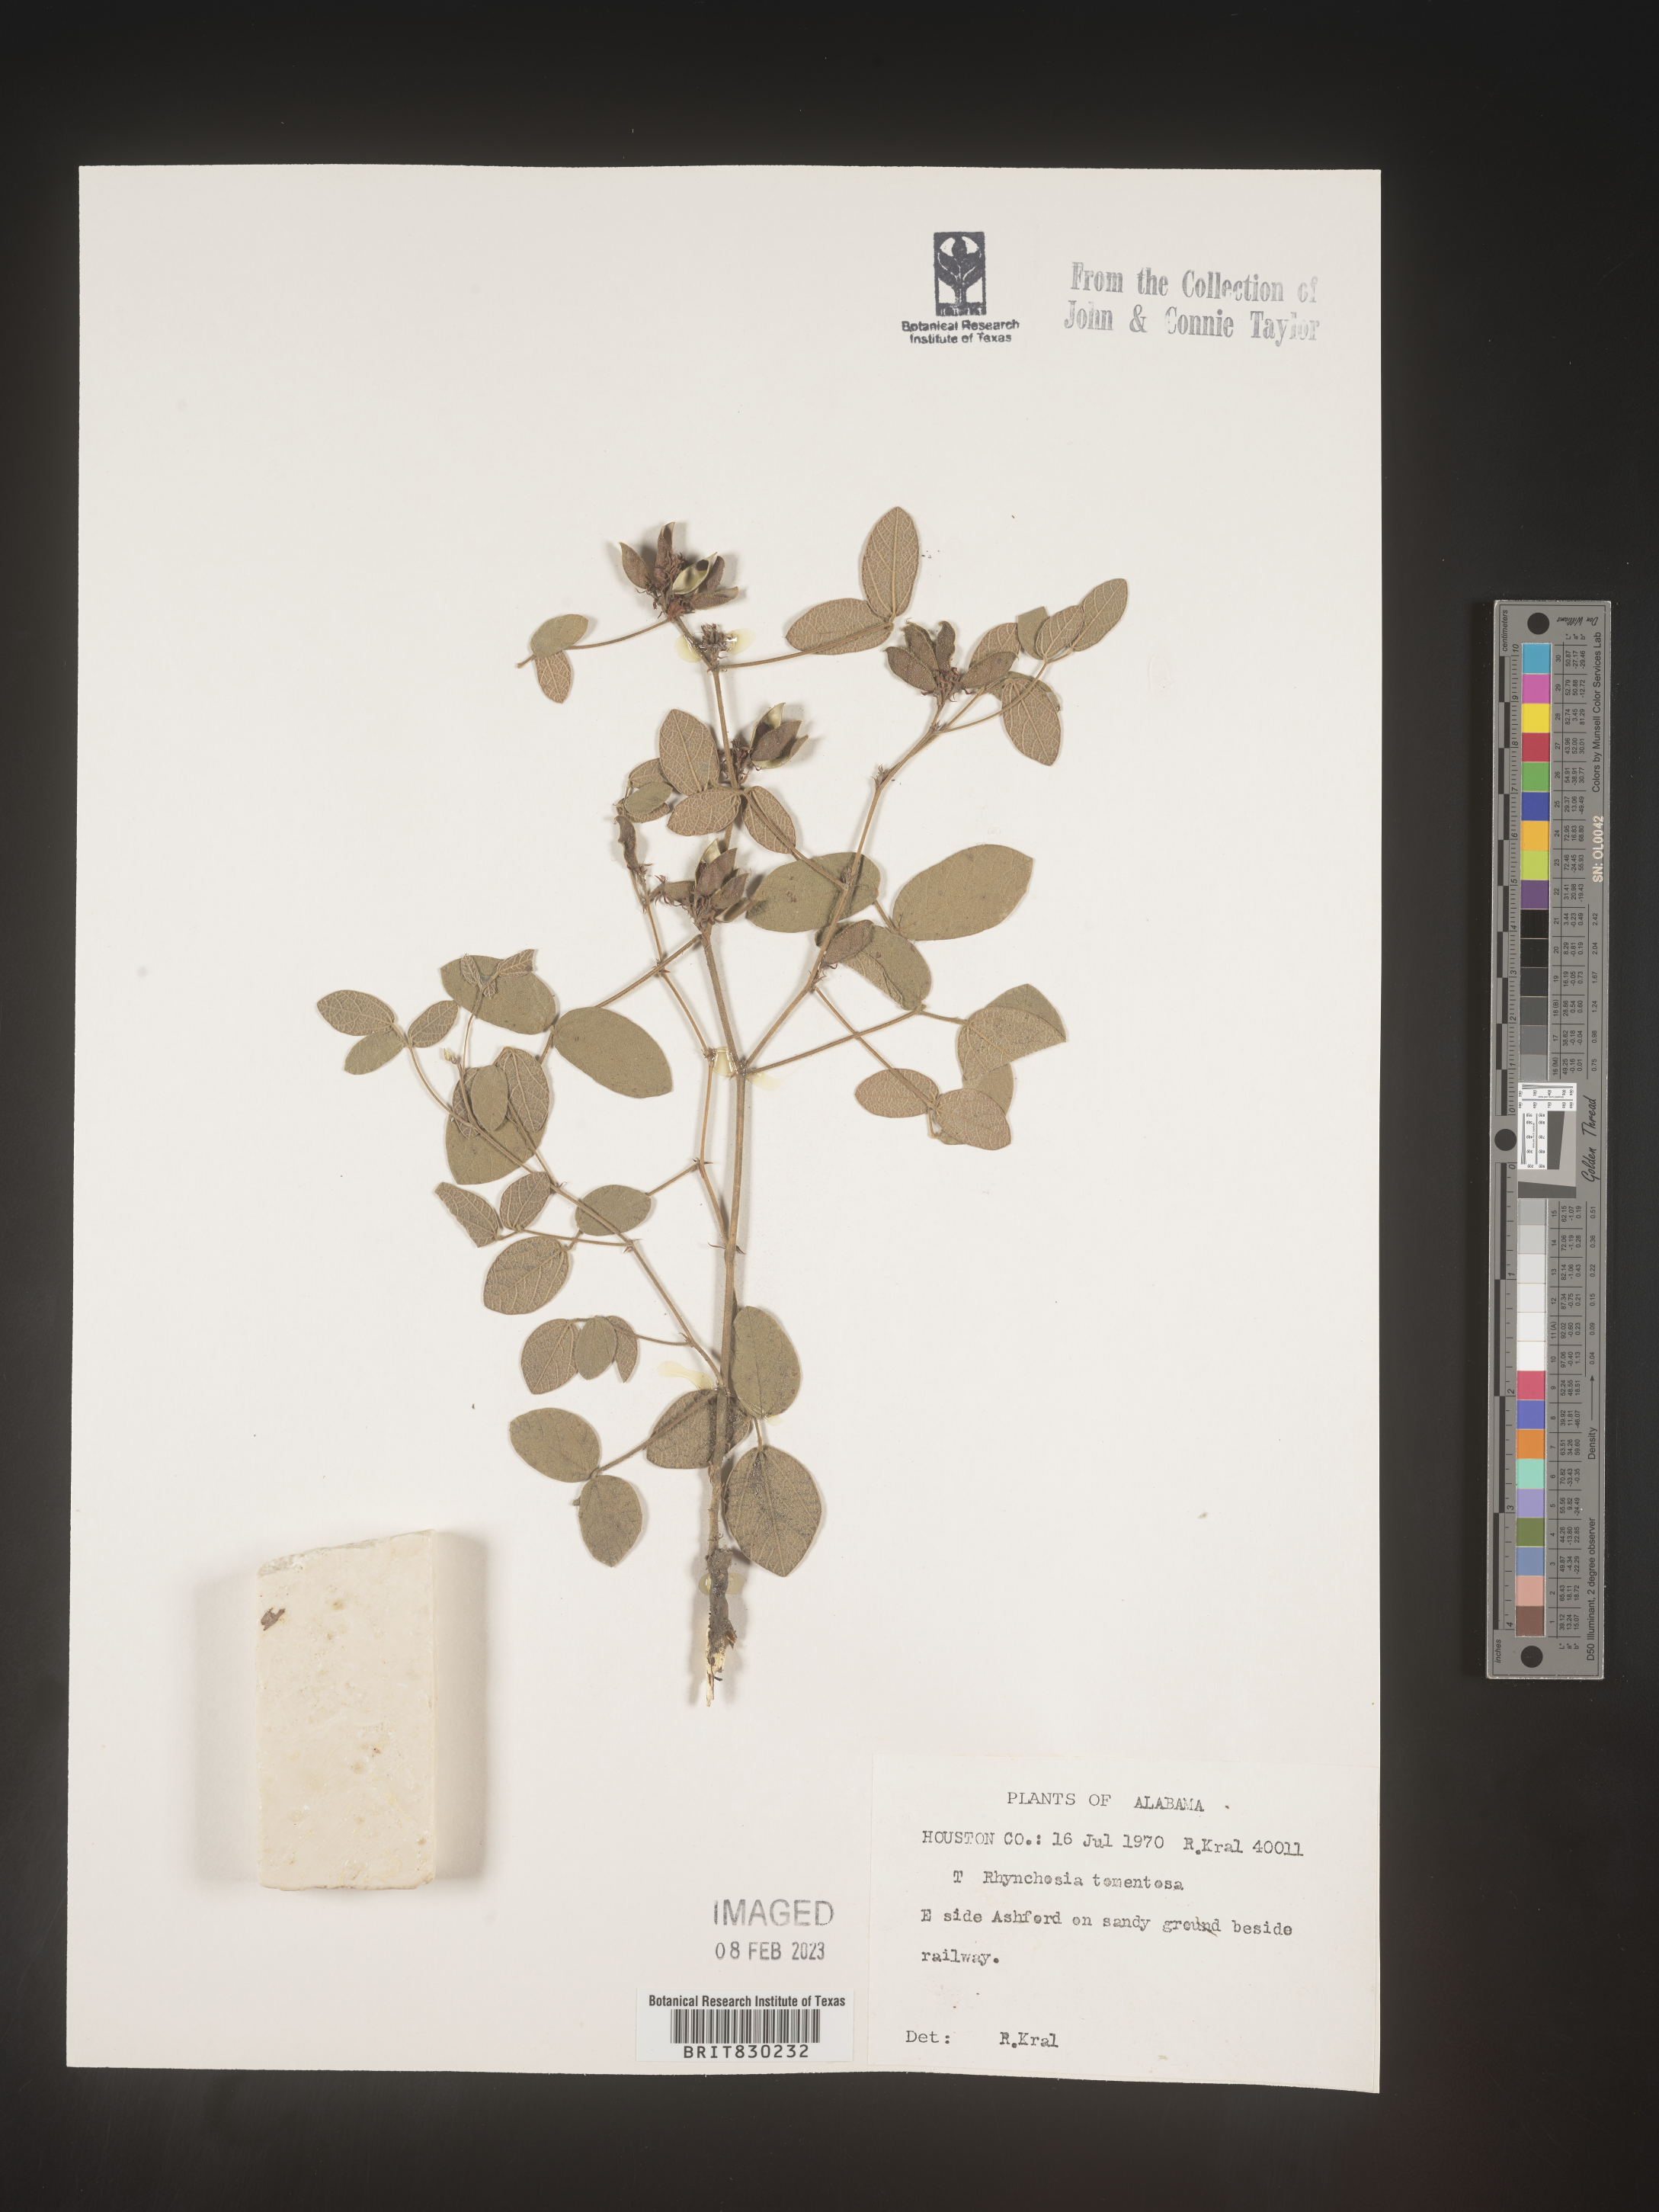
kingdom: Plantae
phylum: Tracheophyta
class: Magnoliopsida
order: Fabales
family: Fabaceae
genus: Rhynchosia
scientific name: Rhynchosia rothii
